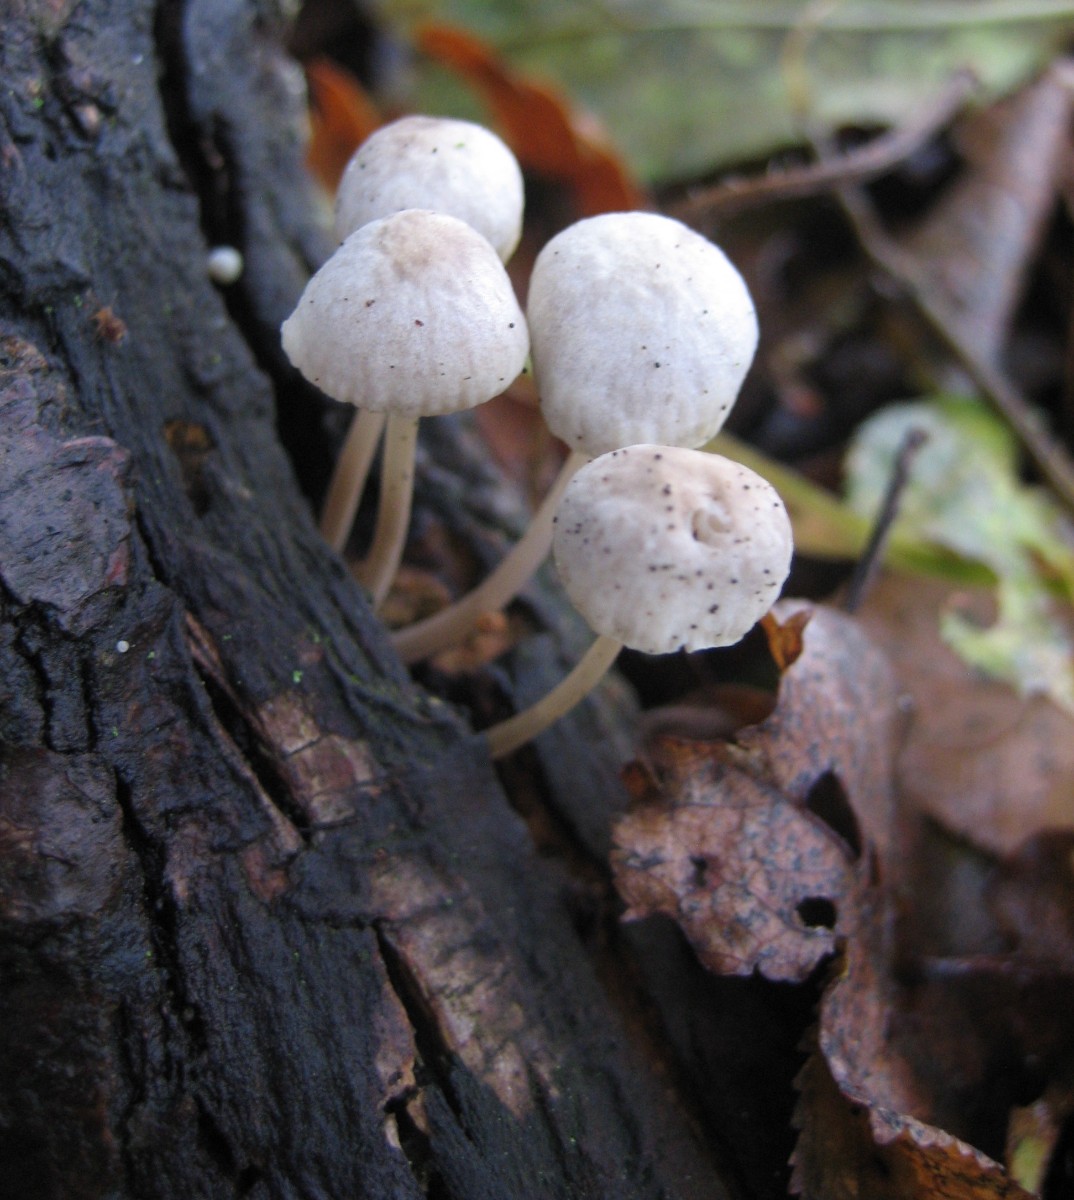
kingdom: Fungi
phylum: Basidiomycota
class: Agaricomycetes
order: Agaricales
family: Mycenaceae
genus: Mycena
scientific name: Mycena
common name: huesvamp
